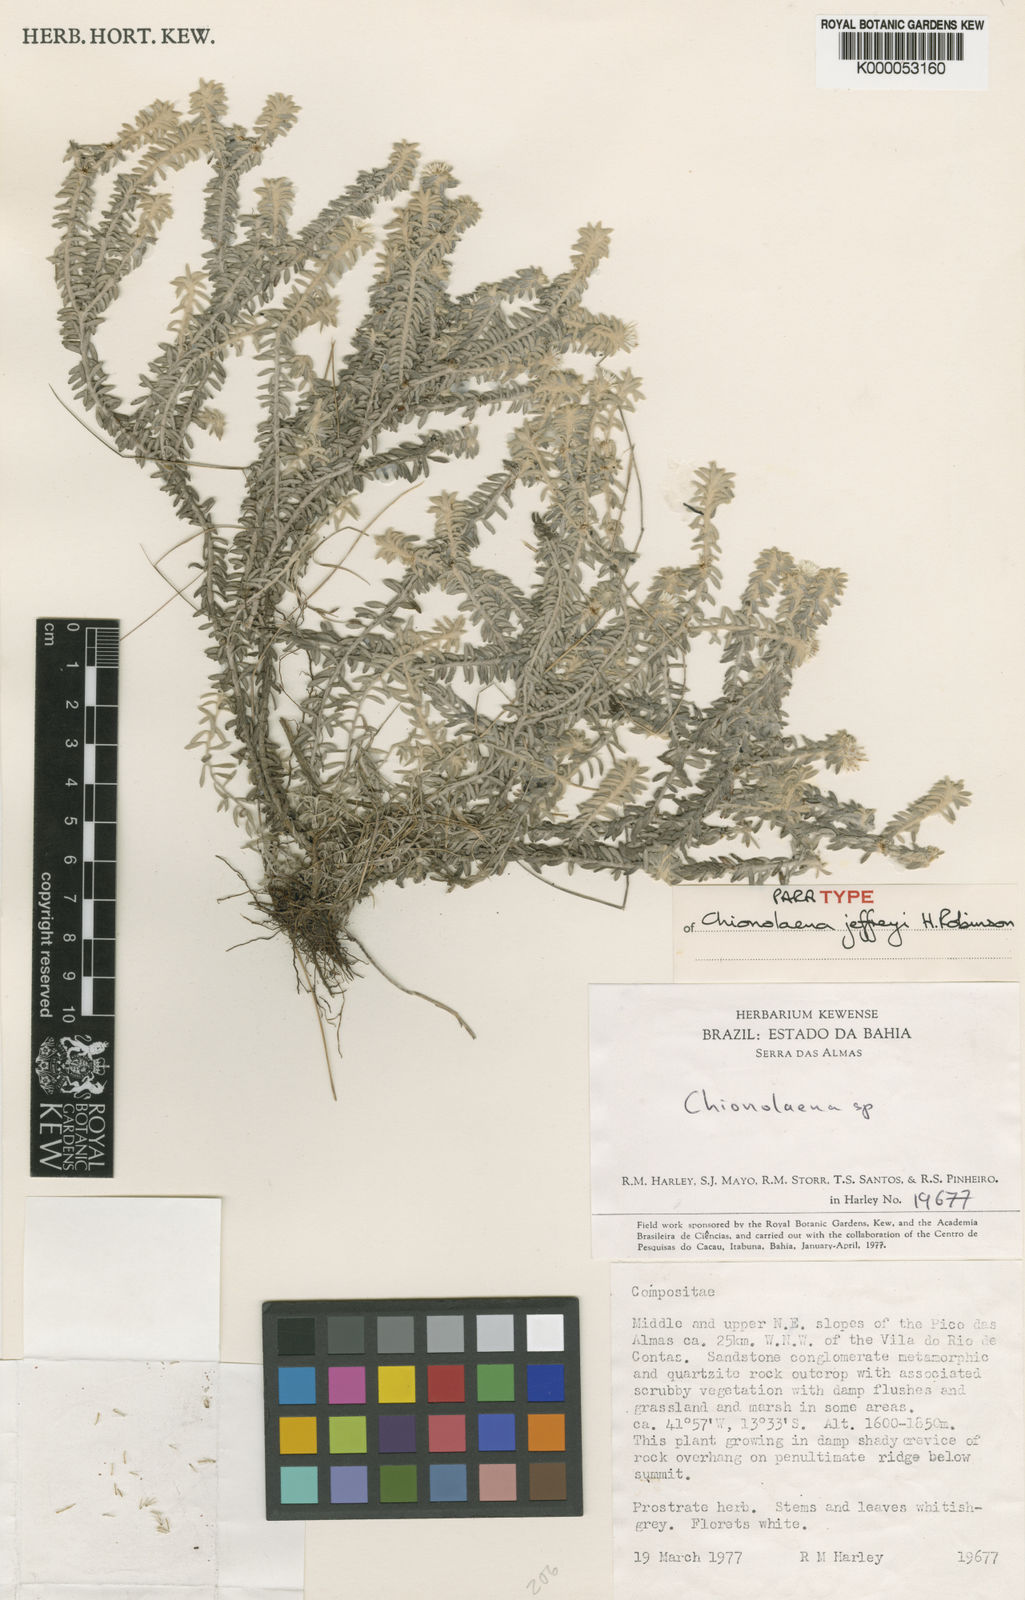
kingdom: Plantae
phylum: Tracheophyta
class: Magnoliopsida
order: Asterales
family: Asteraceae
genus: Chionolaena
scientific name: Chionolaena jeffreyi
